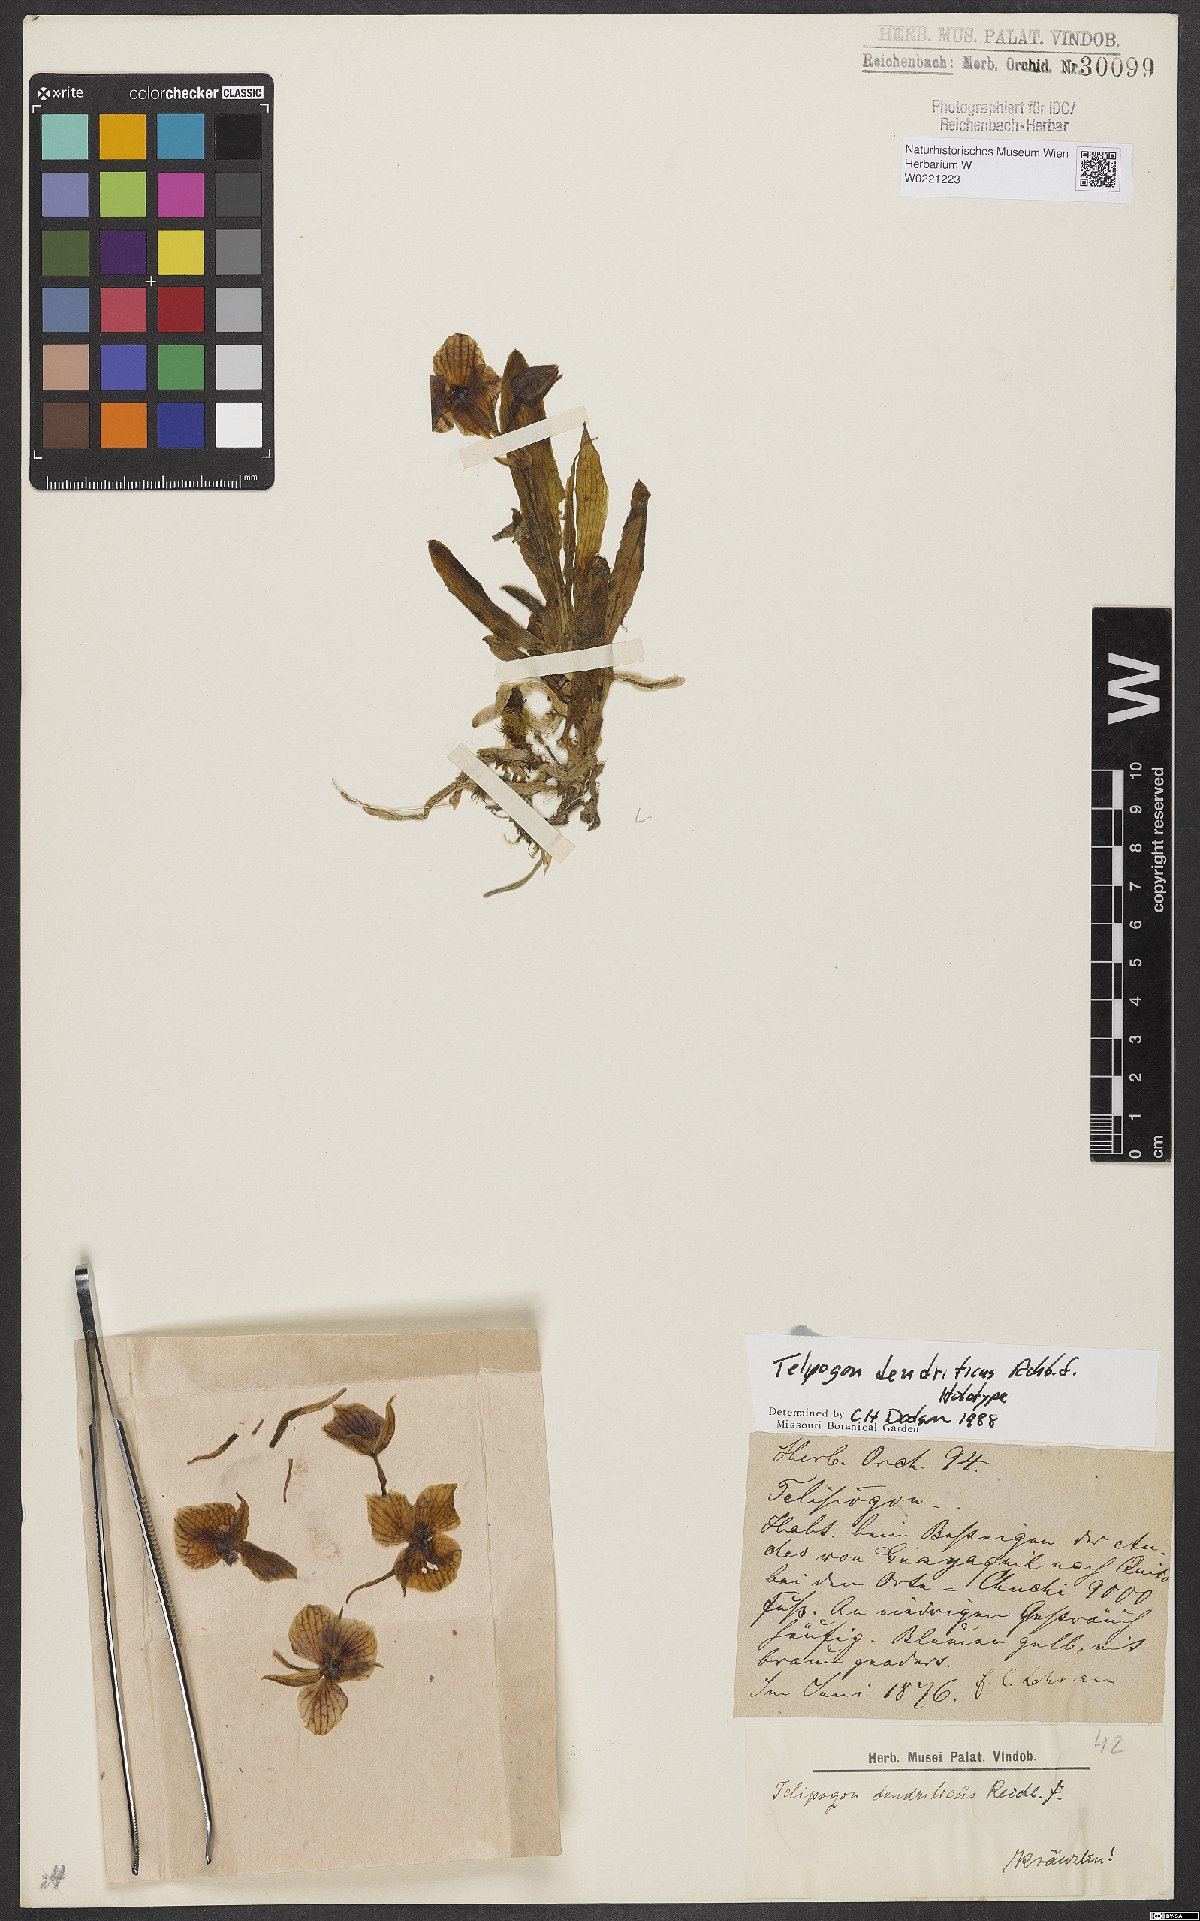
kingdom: Plantae
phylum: Tracheophyta
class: Liliopsida
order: Asparagales
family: Orchidaceae
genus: Telipogon
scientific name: Telipogon dendriticus
